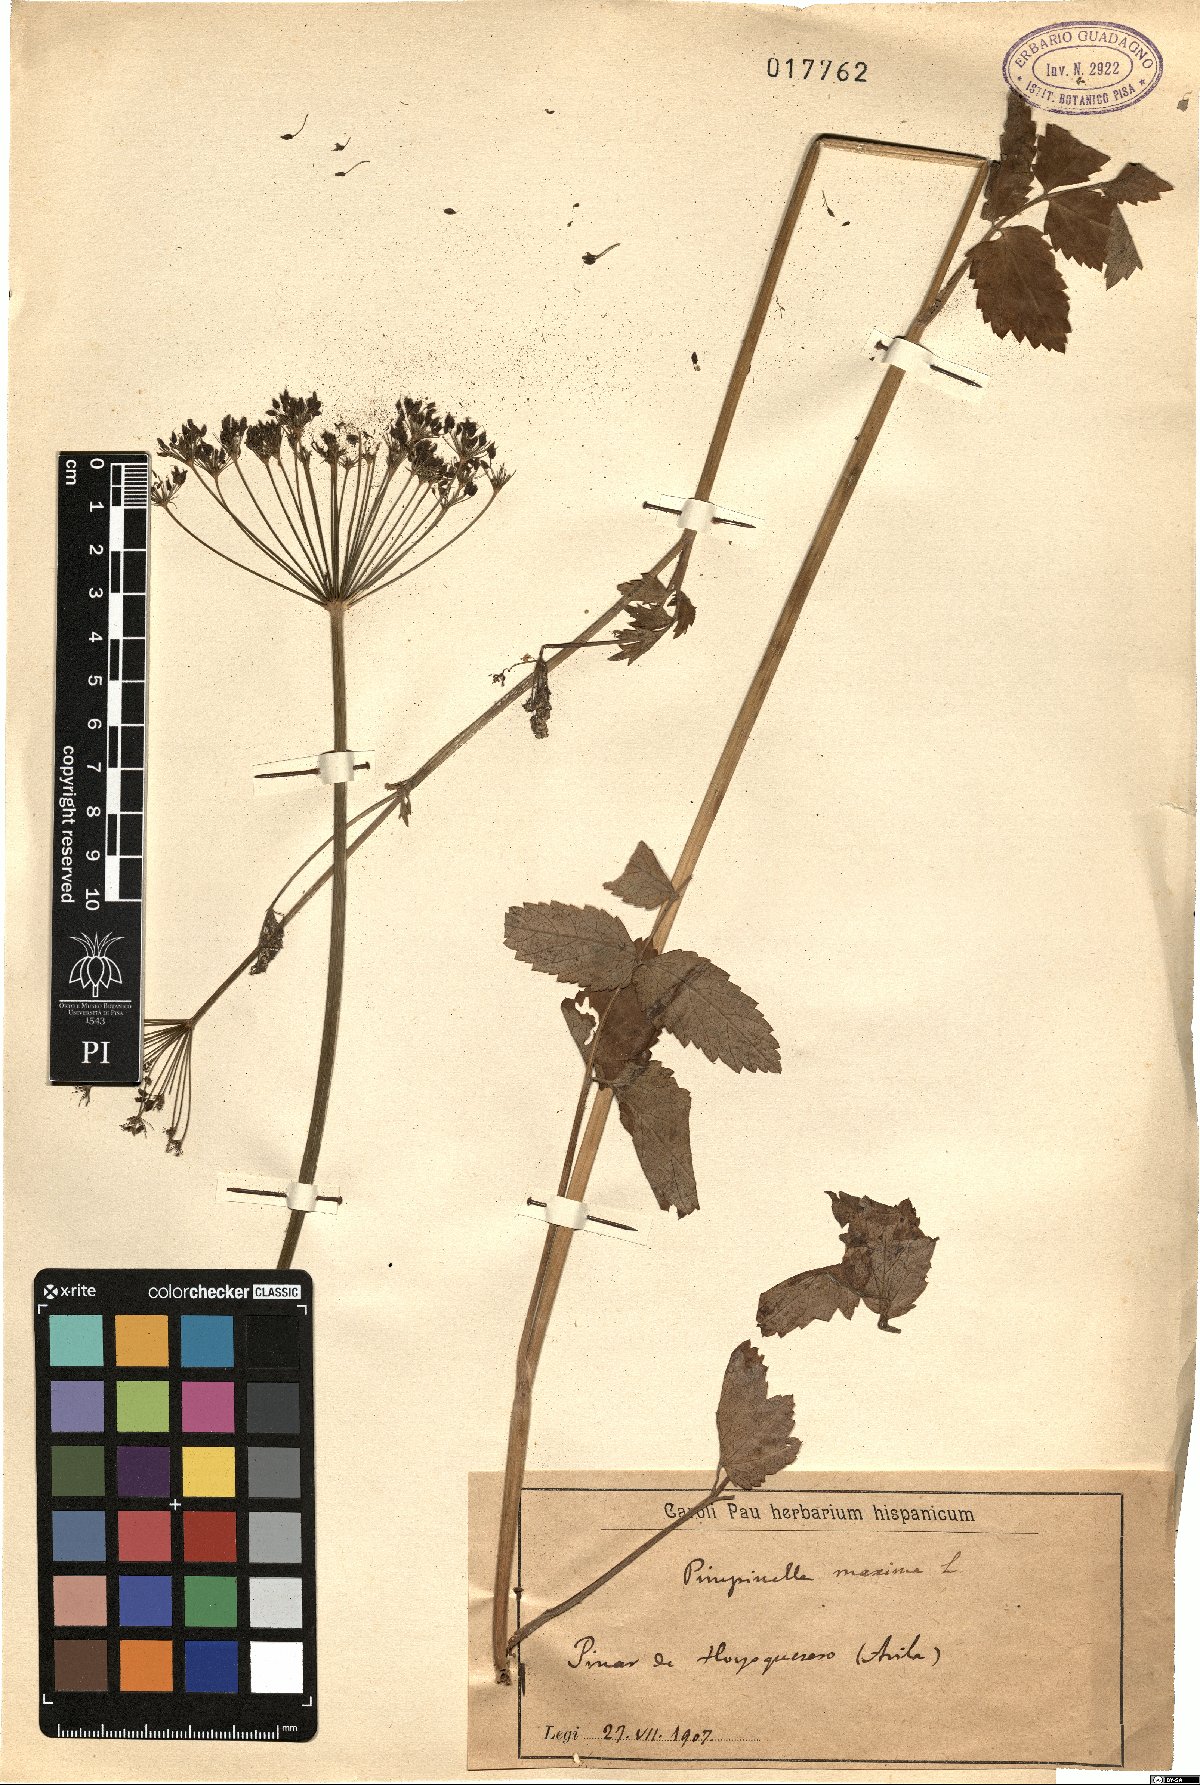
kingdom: Plantae
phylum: Tracheophyta
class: Magnoliopsida
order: Apiales
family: Apiaceae
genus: Pimpinella
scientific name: Pimpinella
